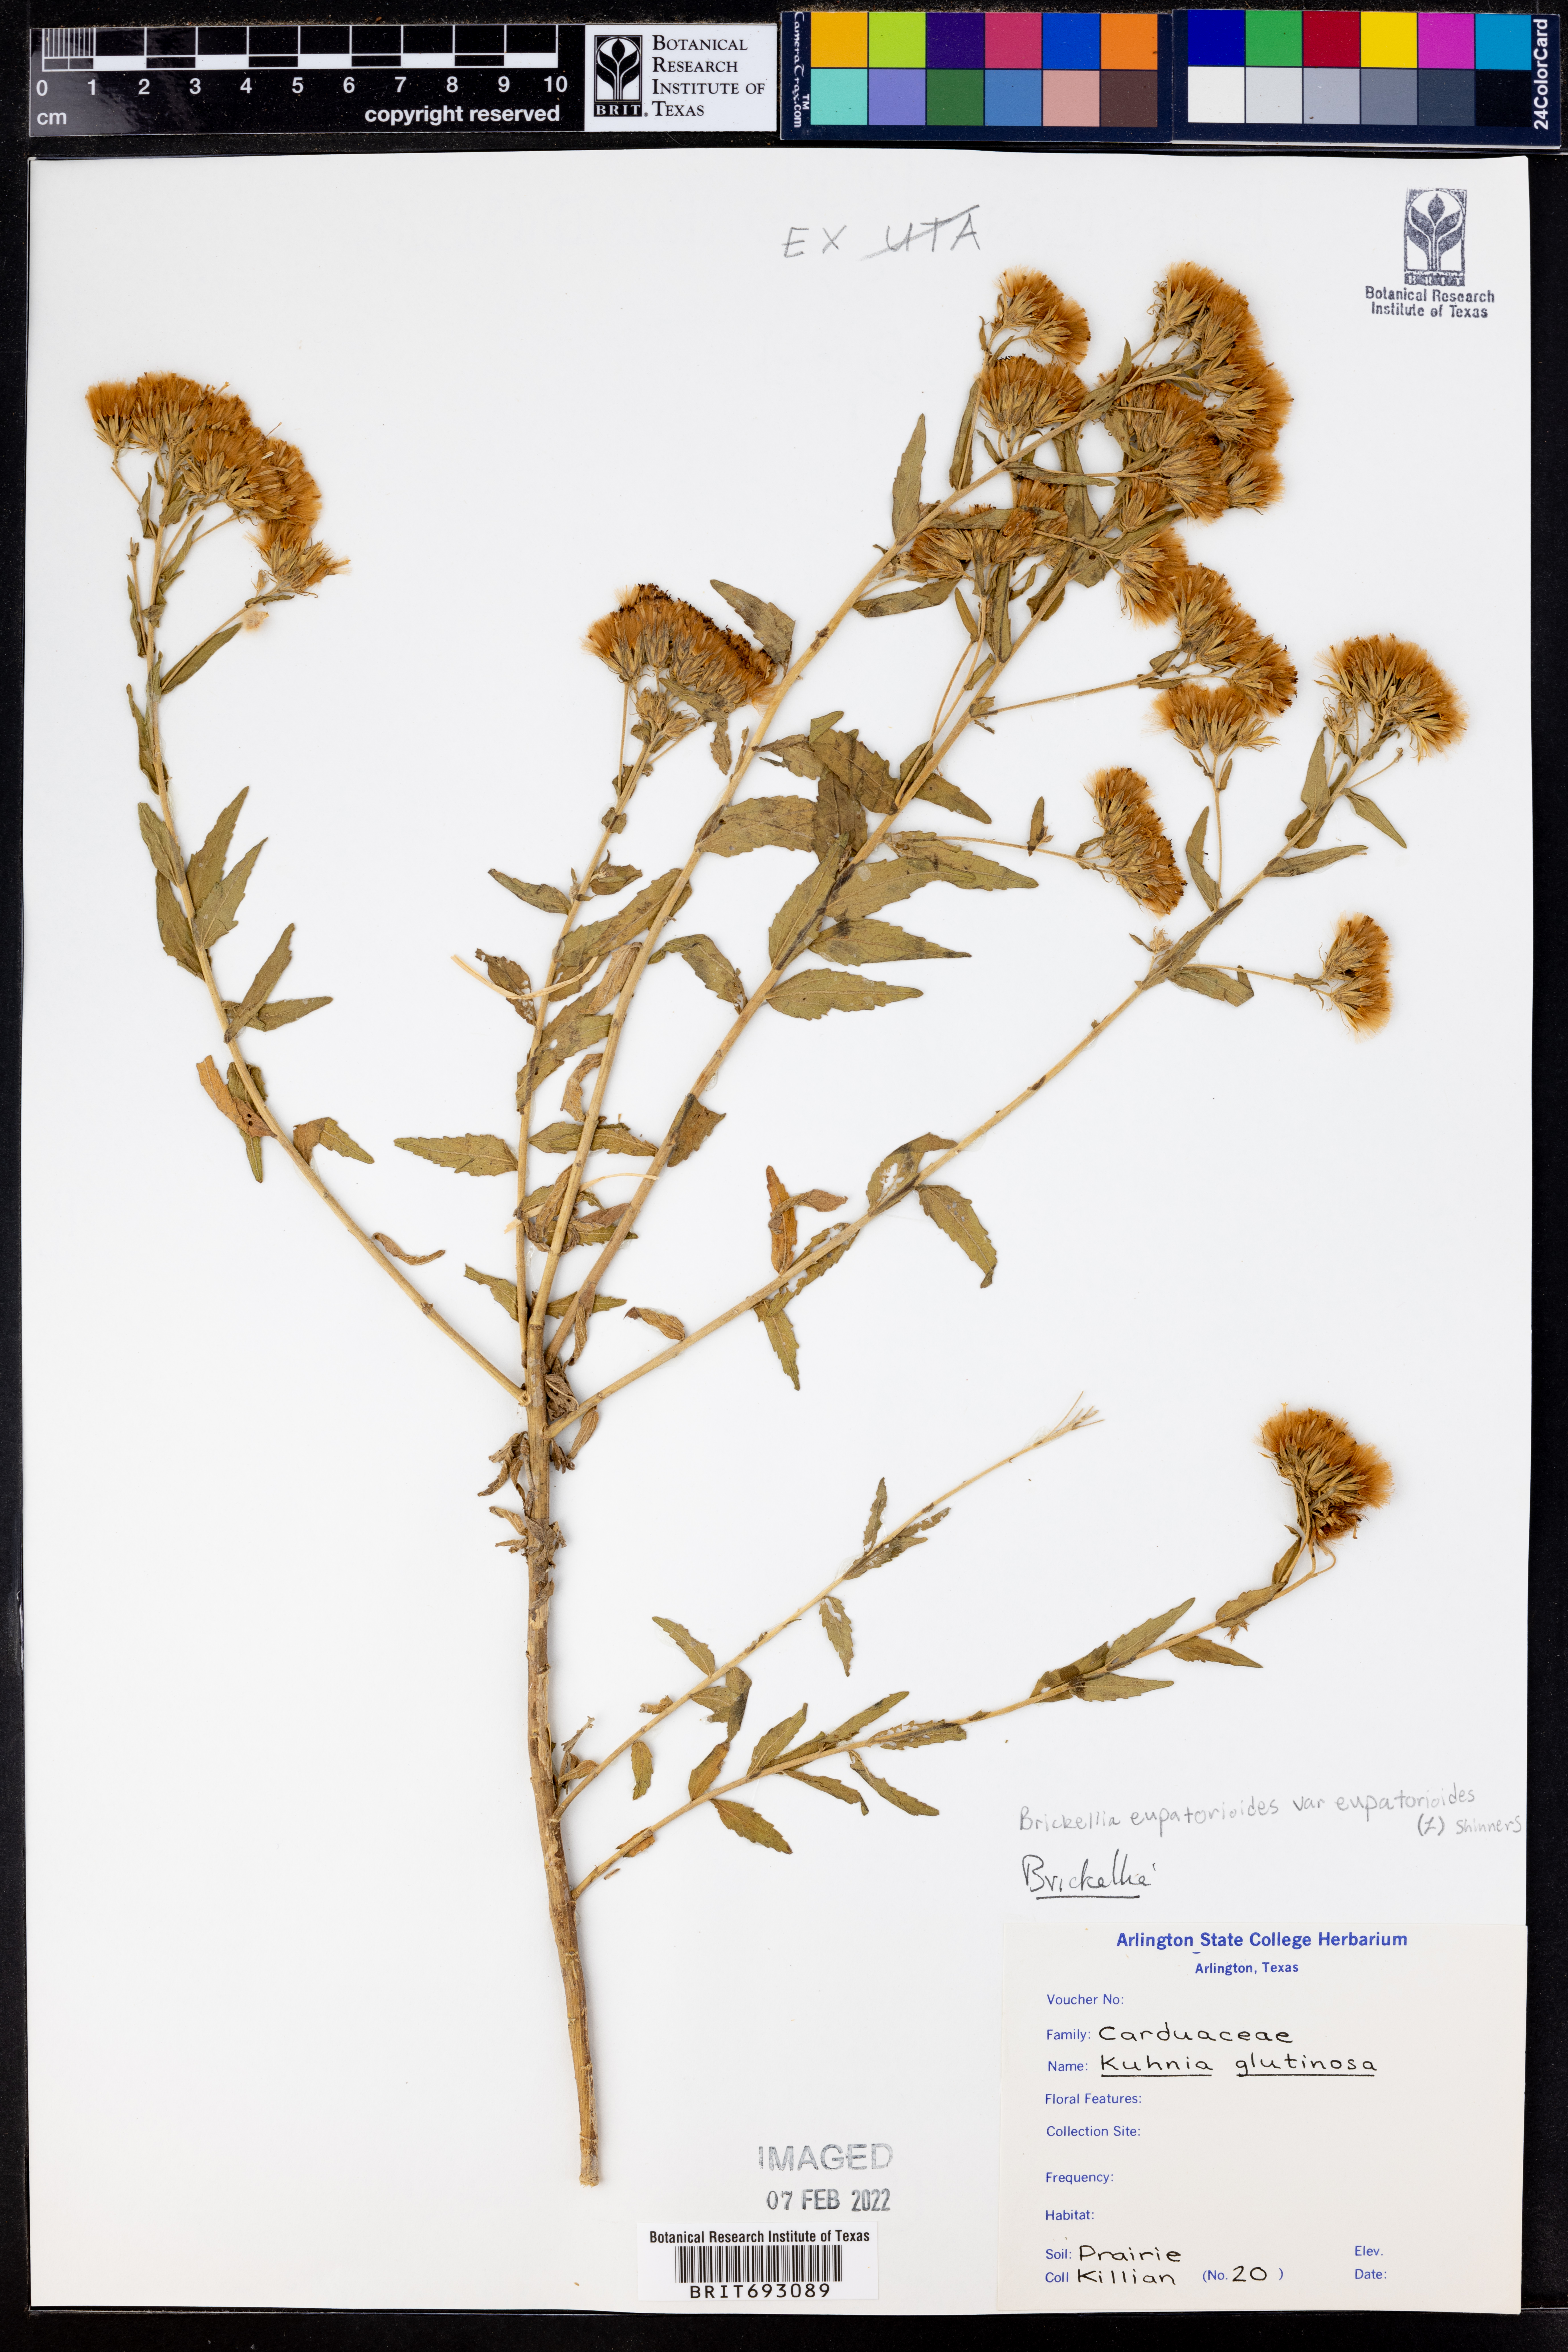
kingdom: Plantae
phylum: Tracheophyta
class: Magnoliopsida
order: Asterales
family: Asteraceae
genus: Brickellia
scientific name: Brickellia eupatorioides
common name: False boneset
